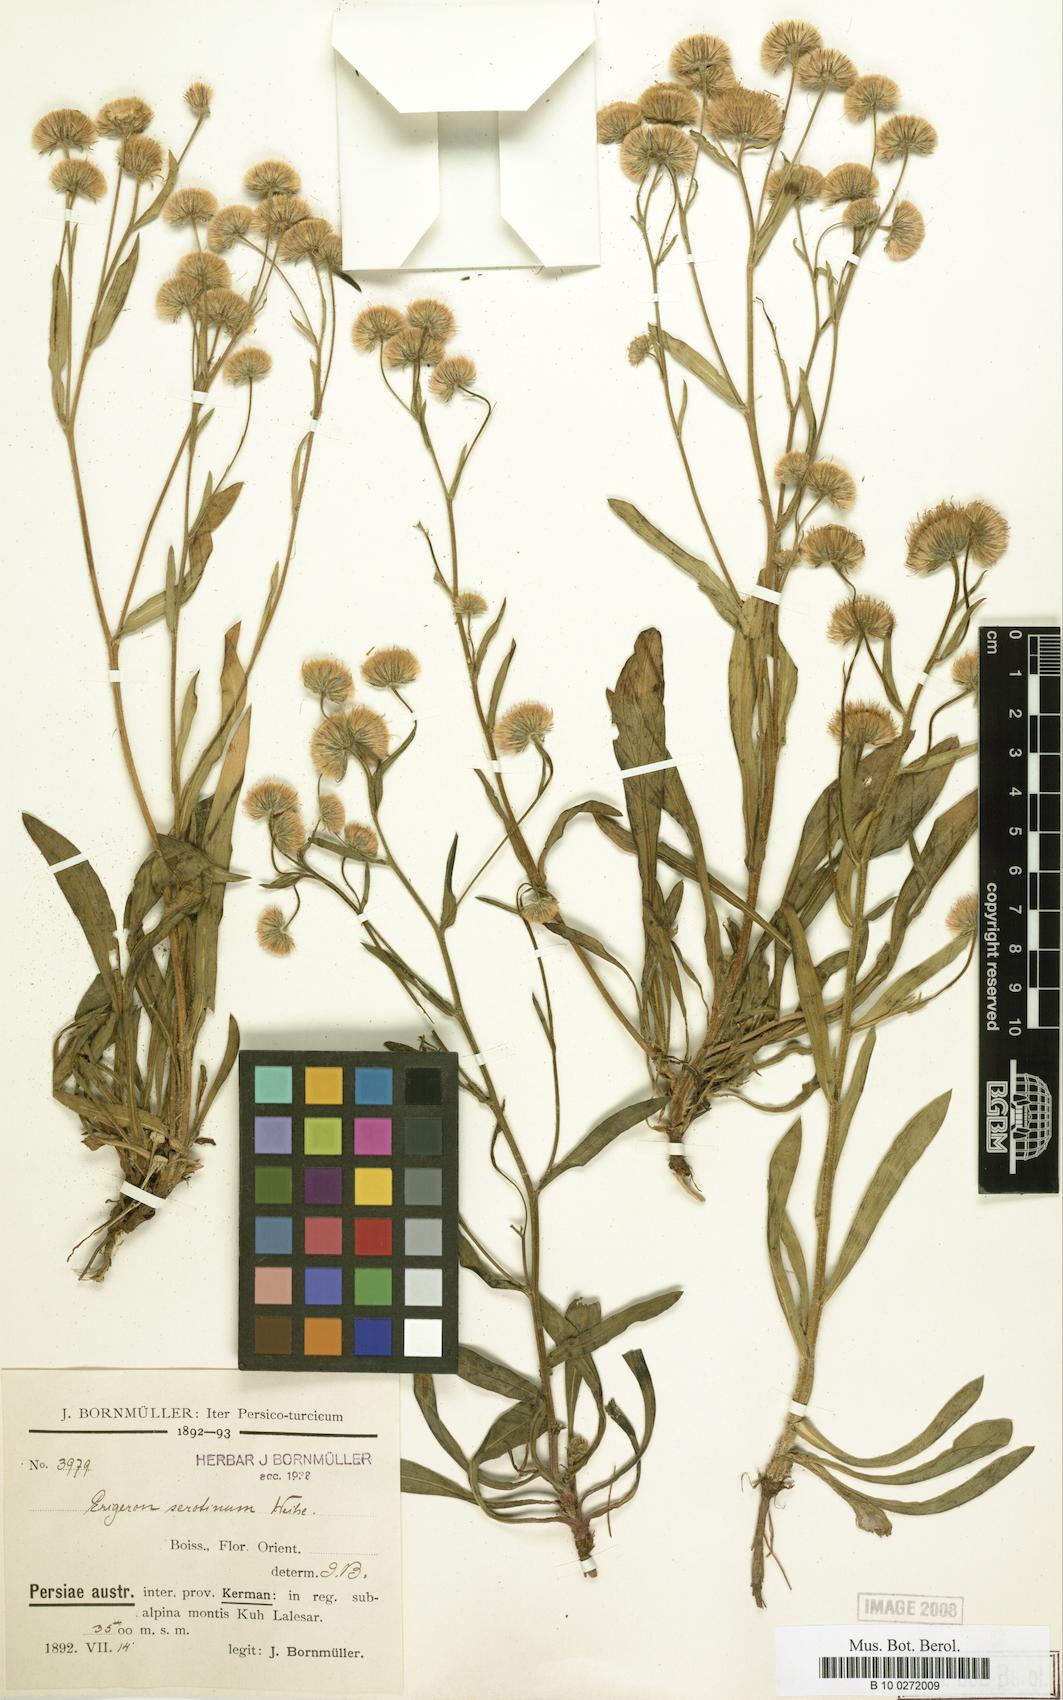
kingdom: Plantae
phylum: Tracheophyta
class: Magnoliopsida
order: Asterales
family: Asteraceae
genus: Erigeron
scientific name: Erigeron lalehzaricus
